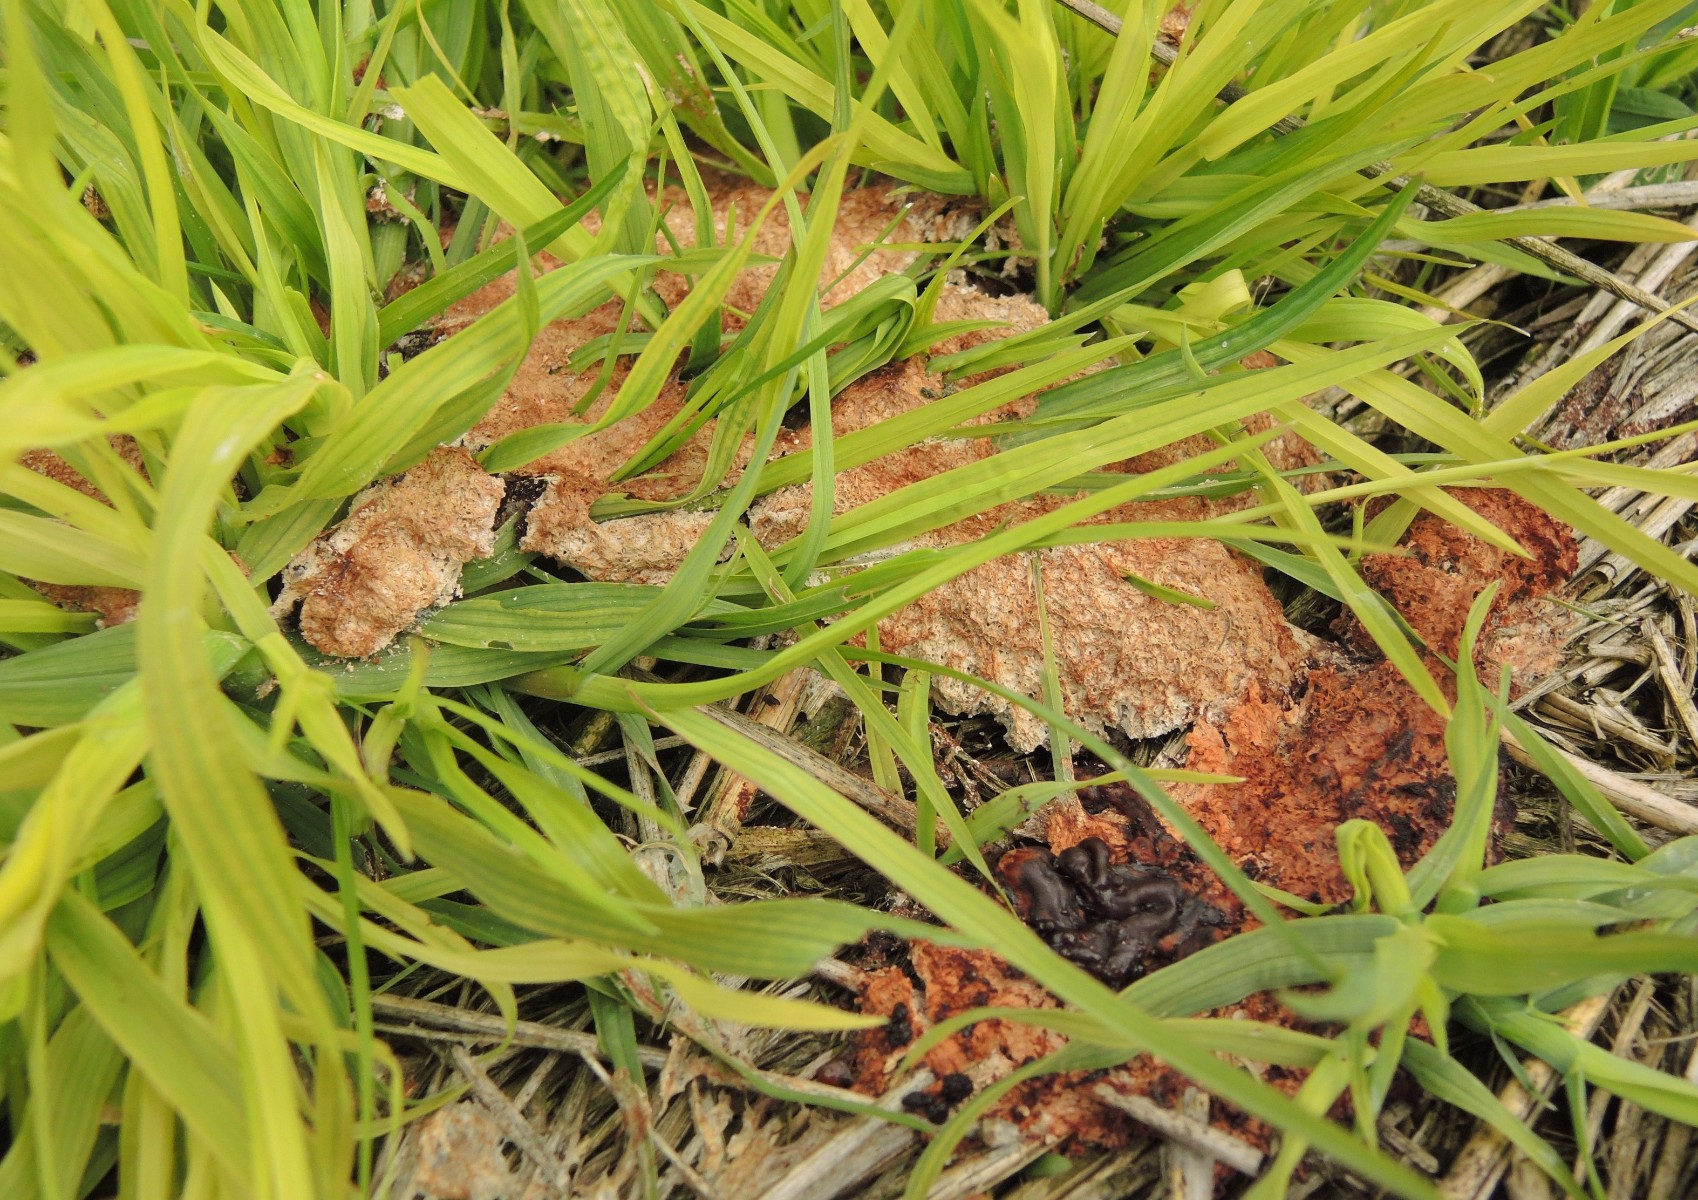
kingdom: Protozoa
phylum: Mycetozoa
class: Myxomycetes
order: Physarales
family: Physaraceae
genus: Fuligo
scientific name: Fuligo septica
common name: Dog vomit slime mold
